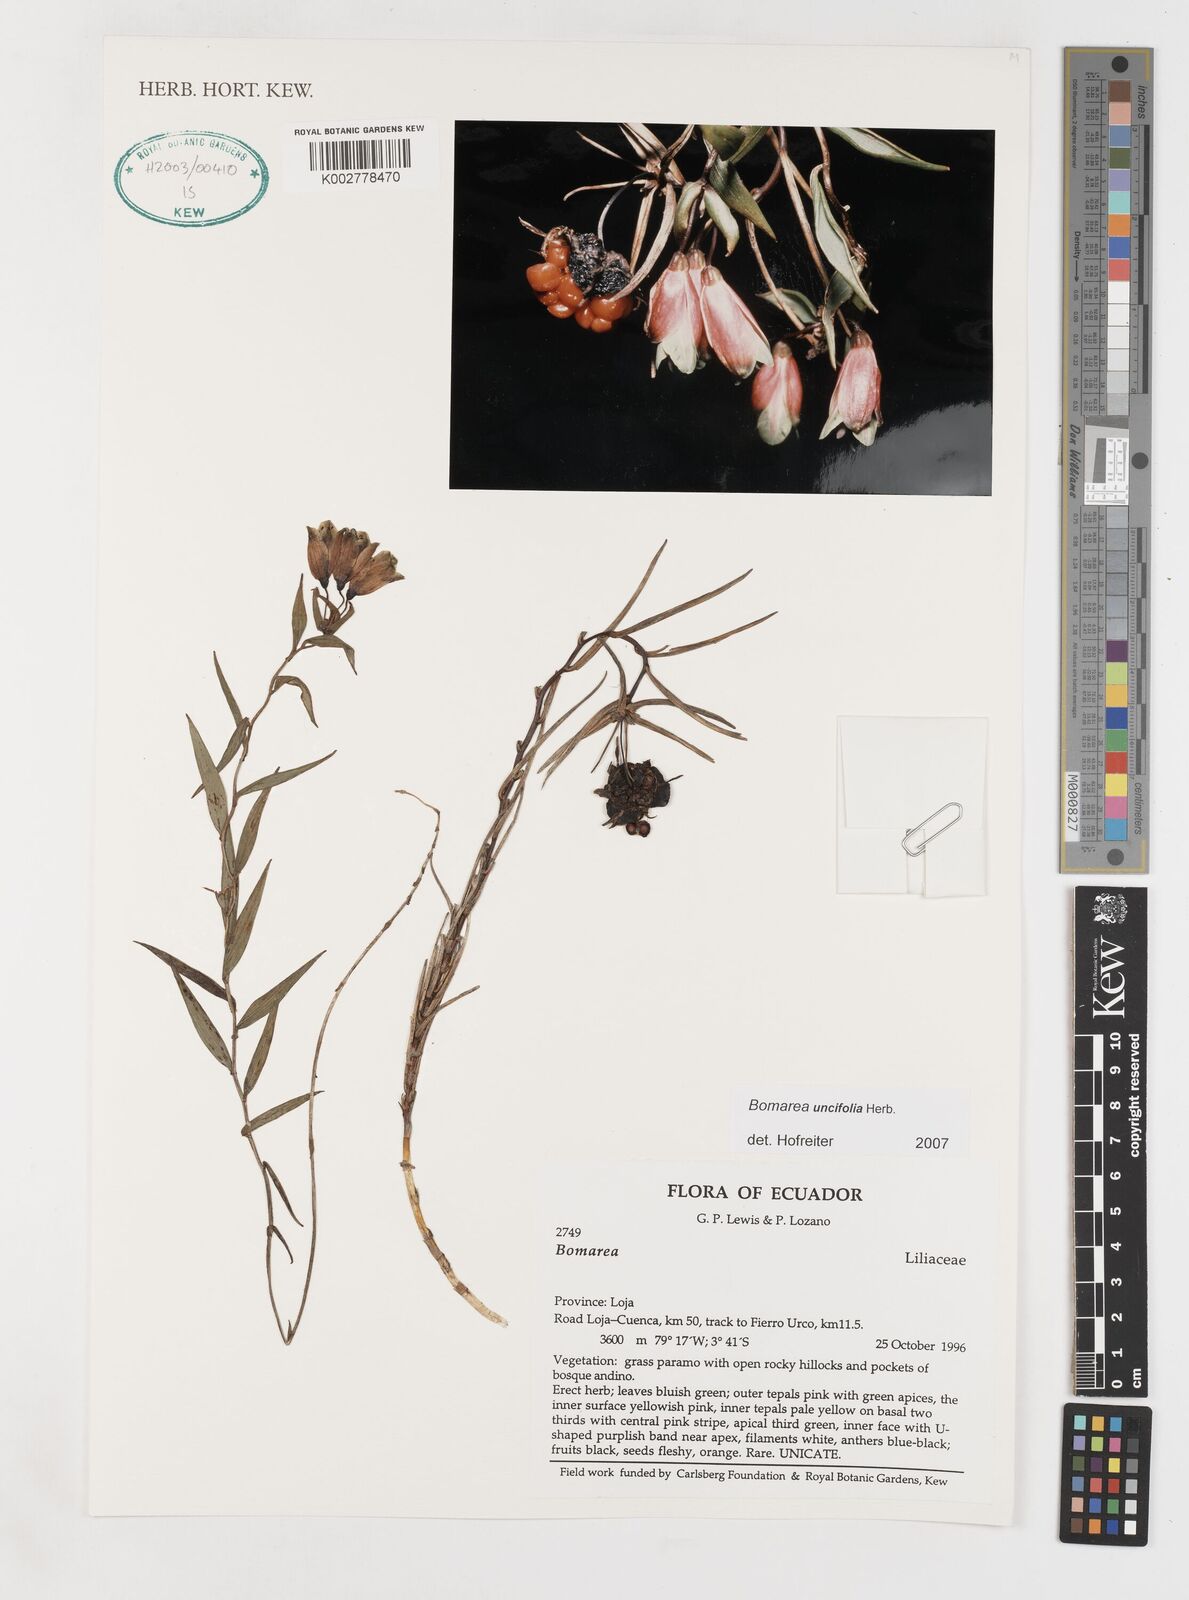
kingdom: Plantae
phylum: Tracheophyta
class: Liliopsida
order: Liliales
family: Alstroemeriaceae
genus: Bomarea
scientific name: Bomarea uncifolia
